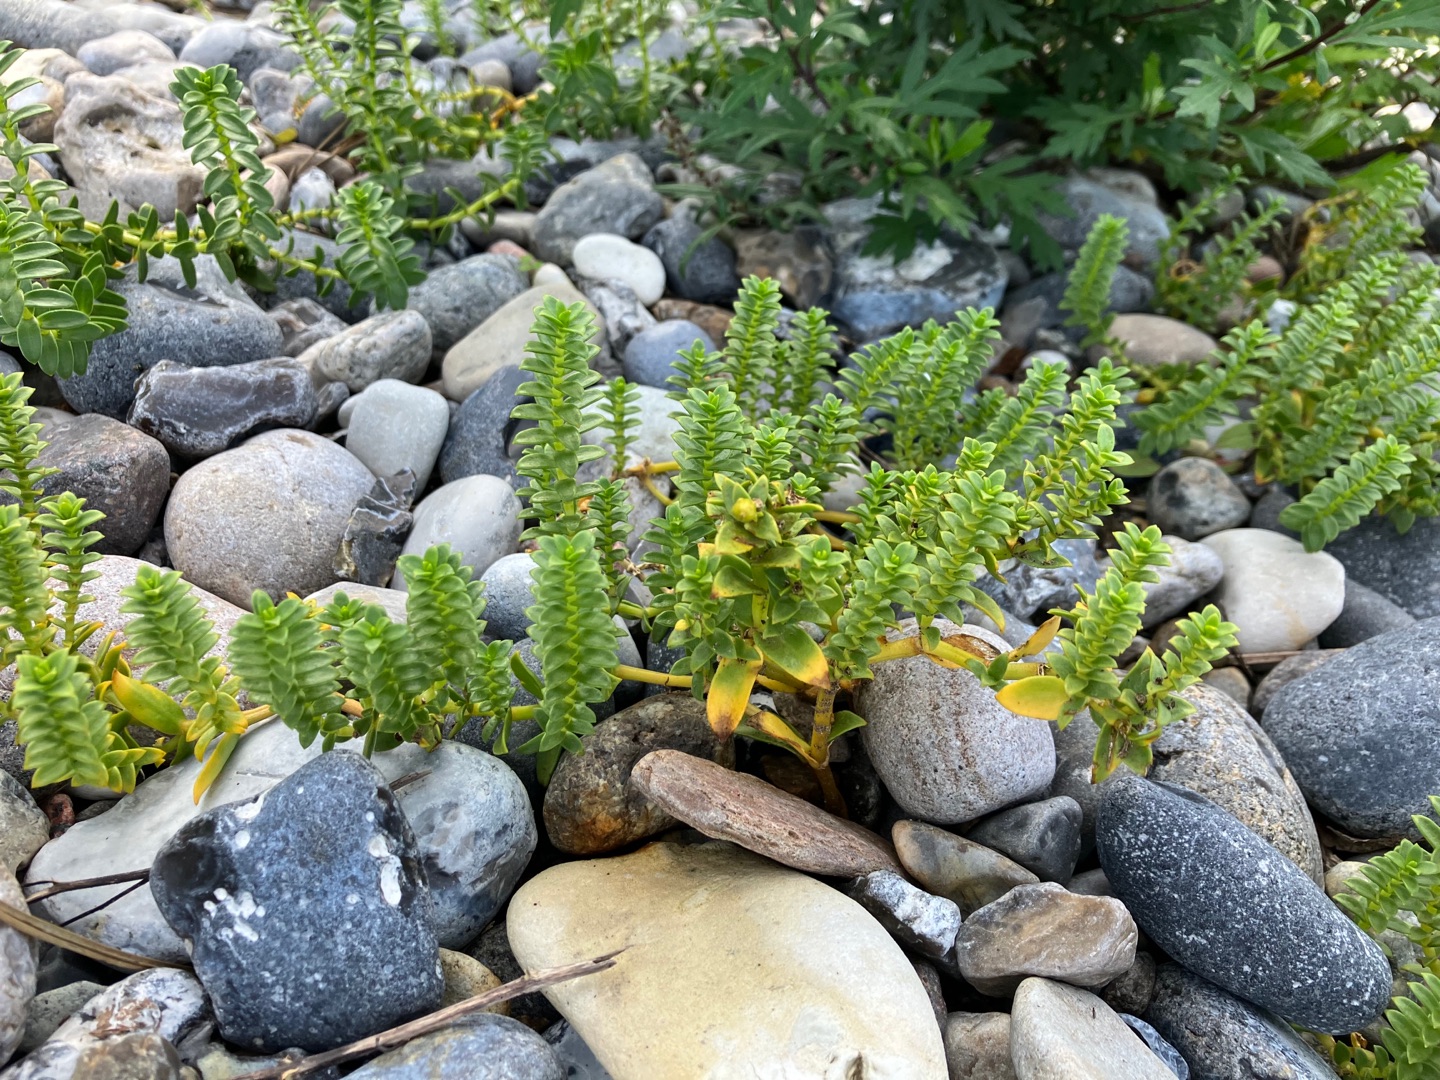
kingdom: Plantae
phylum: Tracheophyta
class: Magnoliopsida
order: Caryophyllales
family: Caryophyllaceae
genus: Honckenya
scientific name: Honckenya peploides
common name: Strandarve
